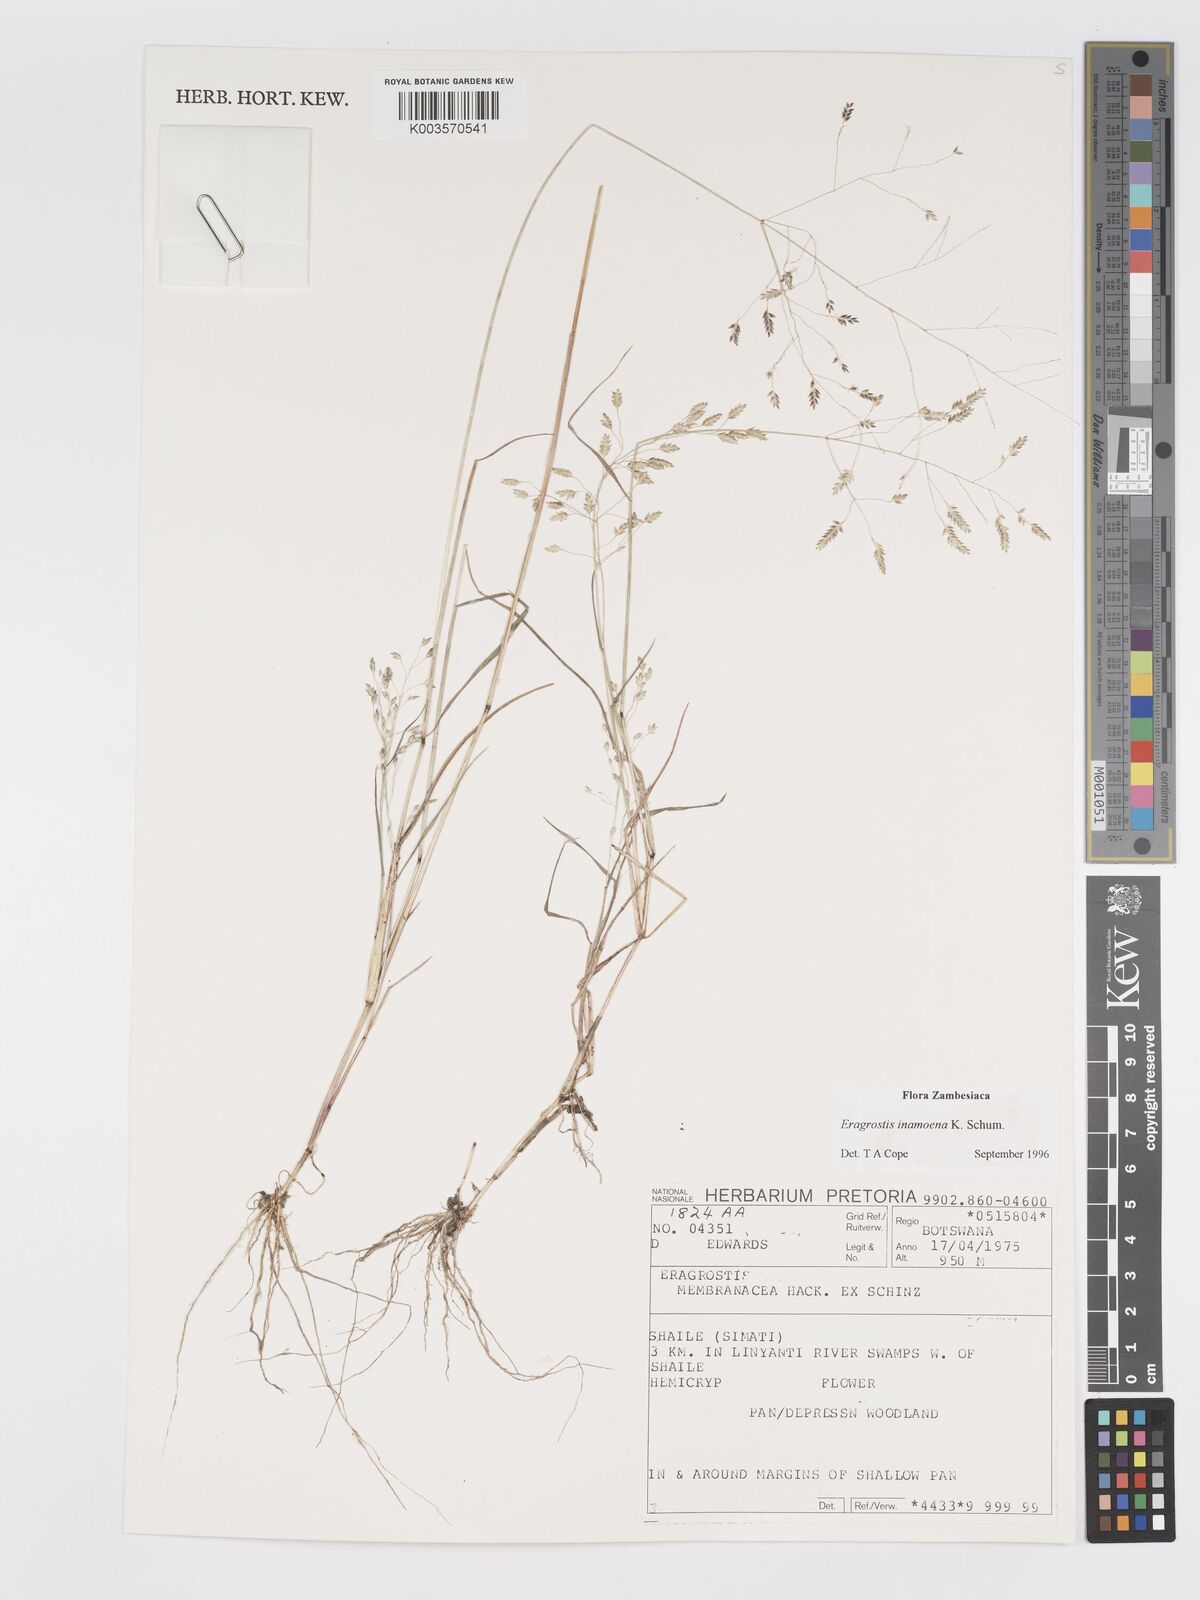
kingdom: Plantae
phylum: Tracheophyta
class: Liliopsida
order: Poales
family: Poaceae
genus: Eragrostis
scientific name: Eragrostis inamoena
